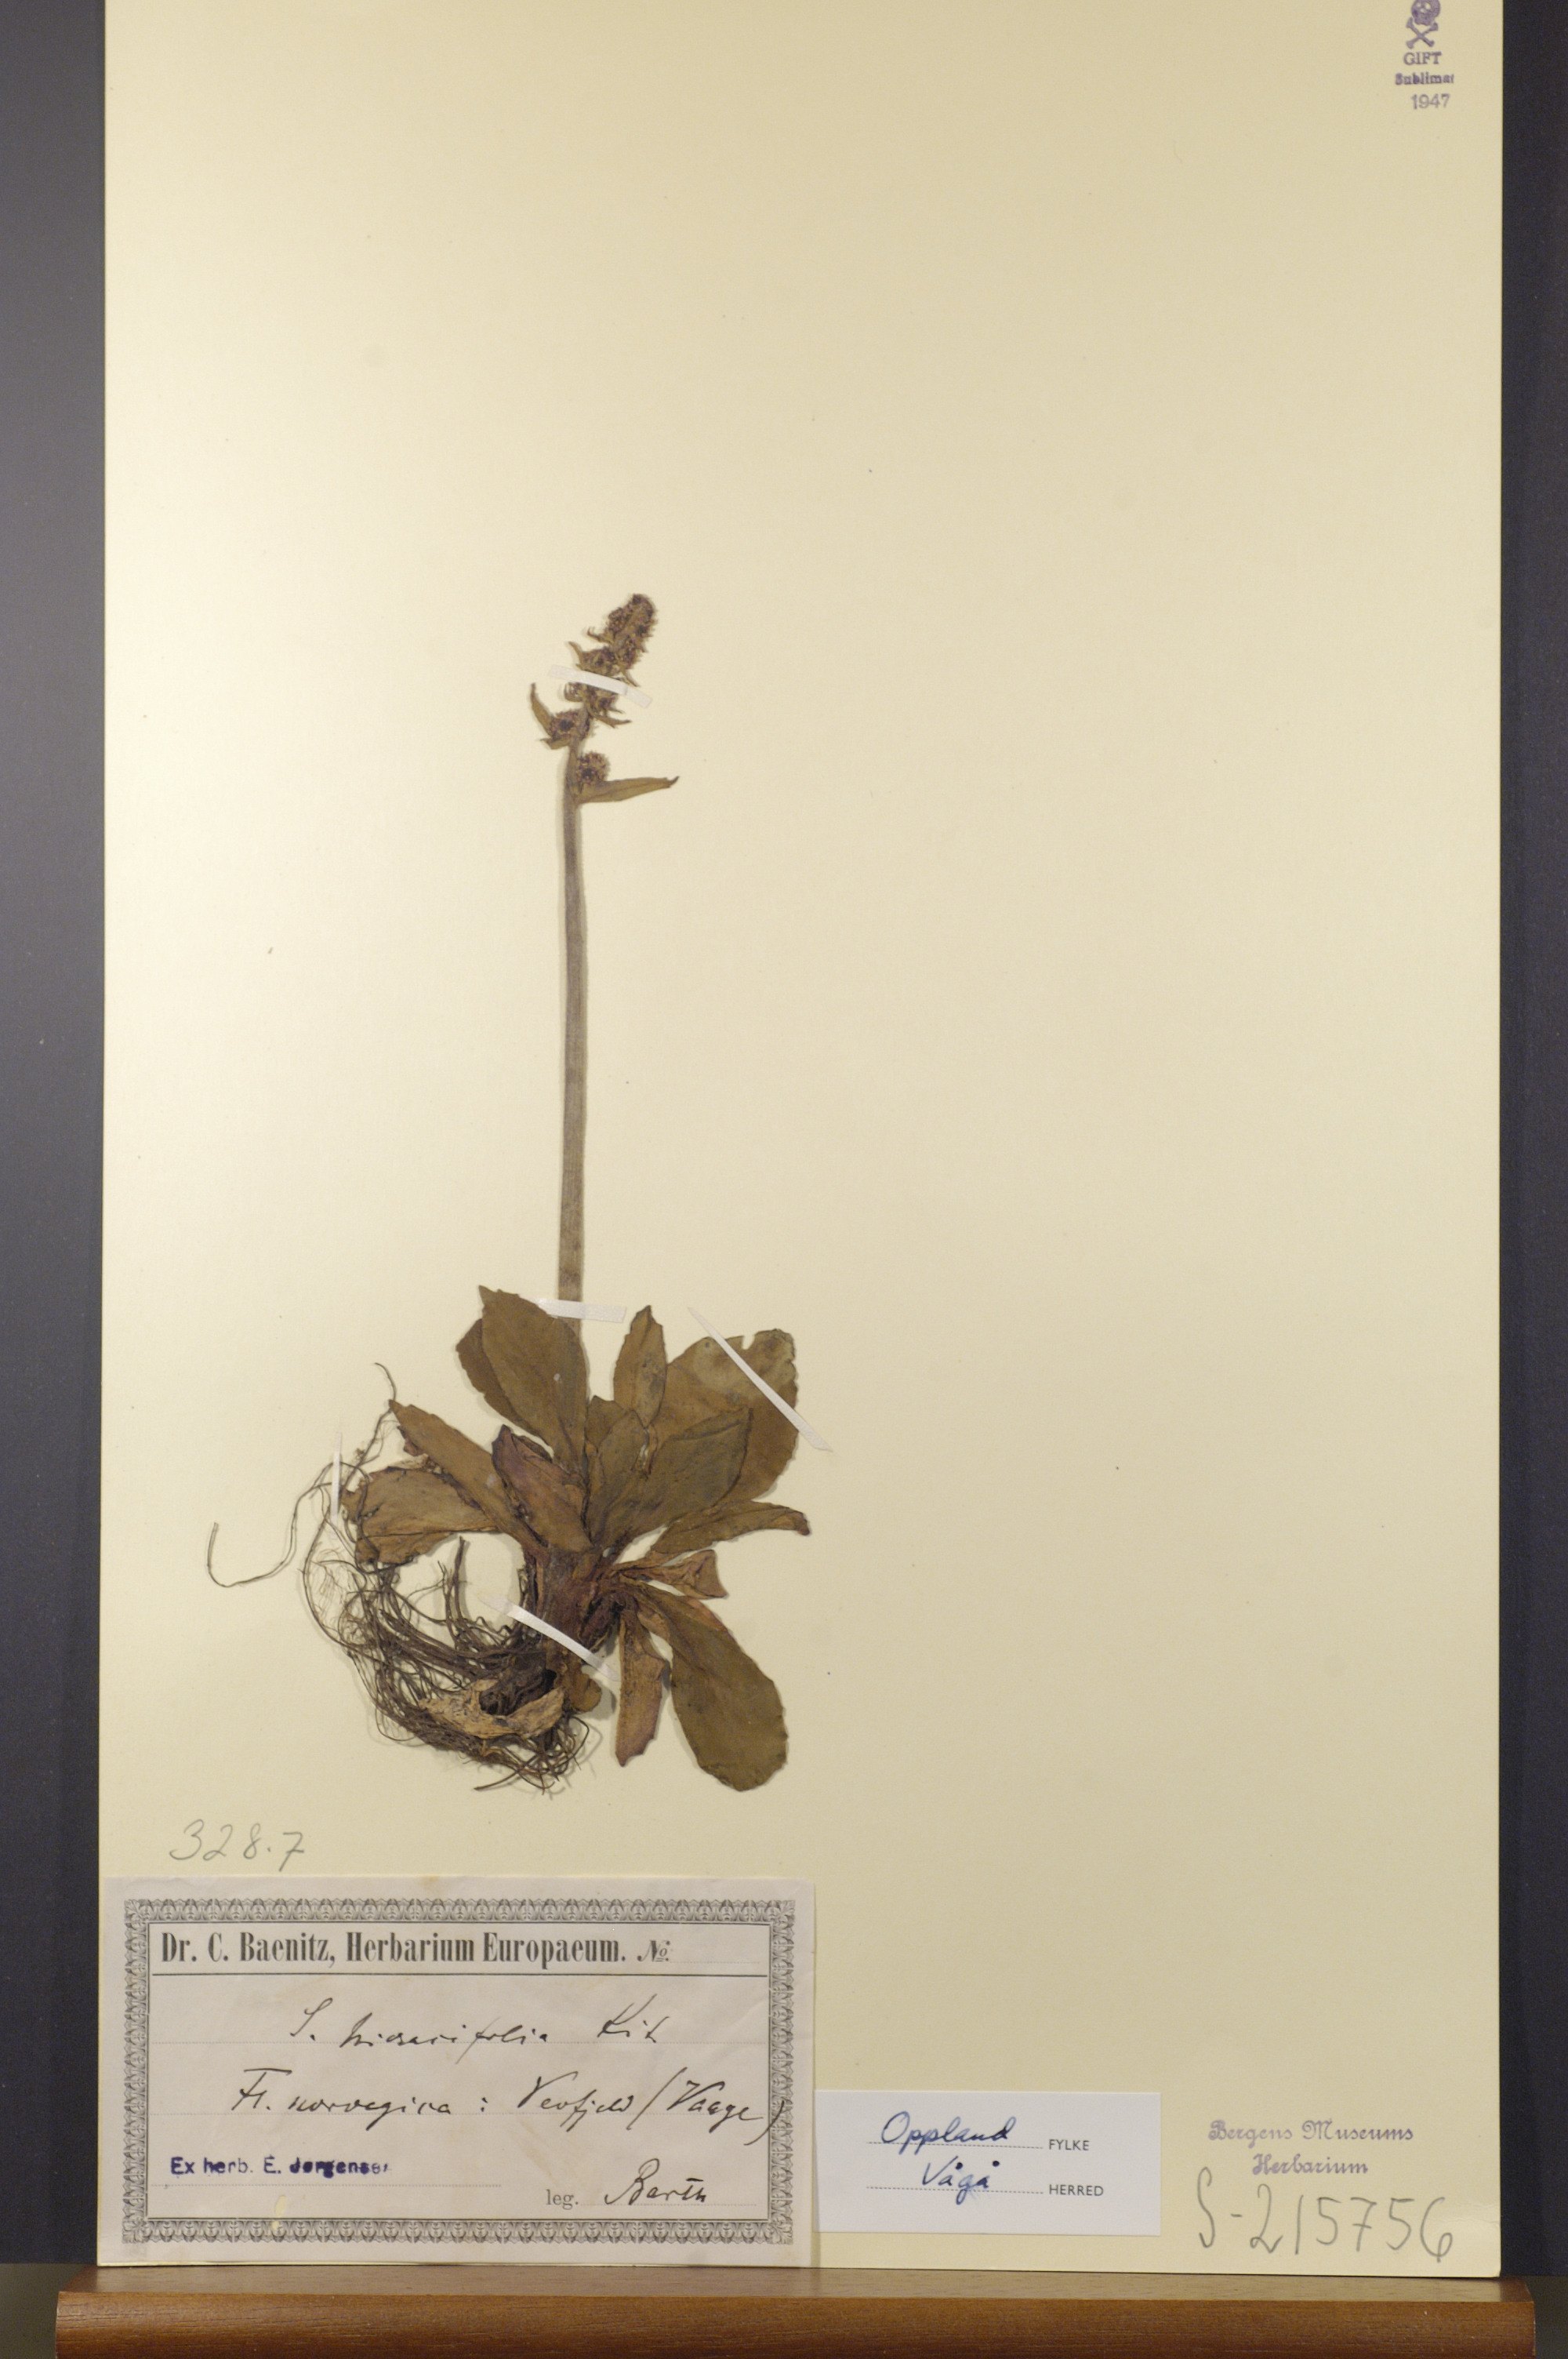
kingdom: Plantae
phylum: Tracheophyta
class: Magnoliopsida
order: Saxifragales
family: Saxifragaceae
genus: Micranthes
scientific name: Micranthes hieraciifolia
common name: Hawkweed-leaved saxifrage
